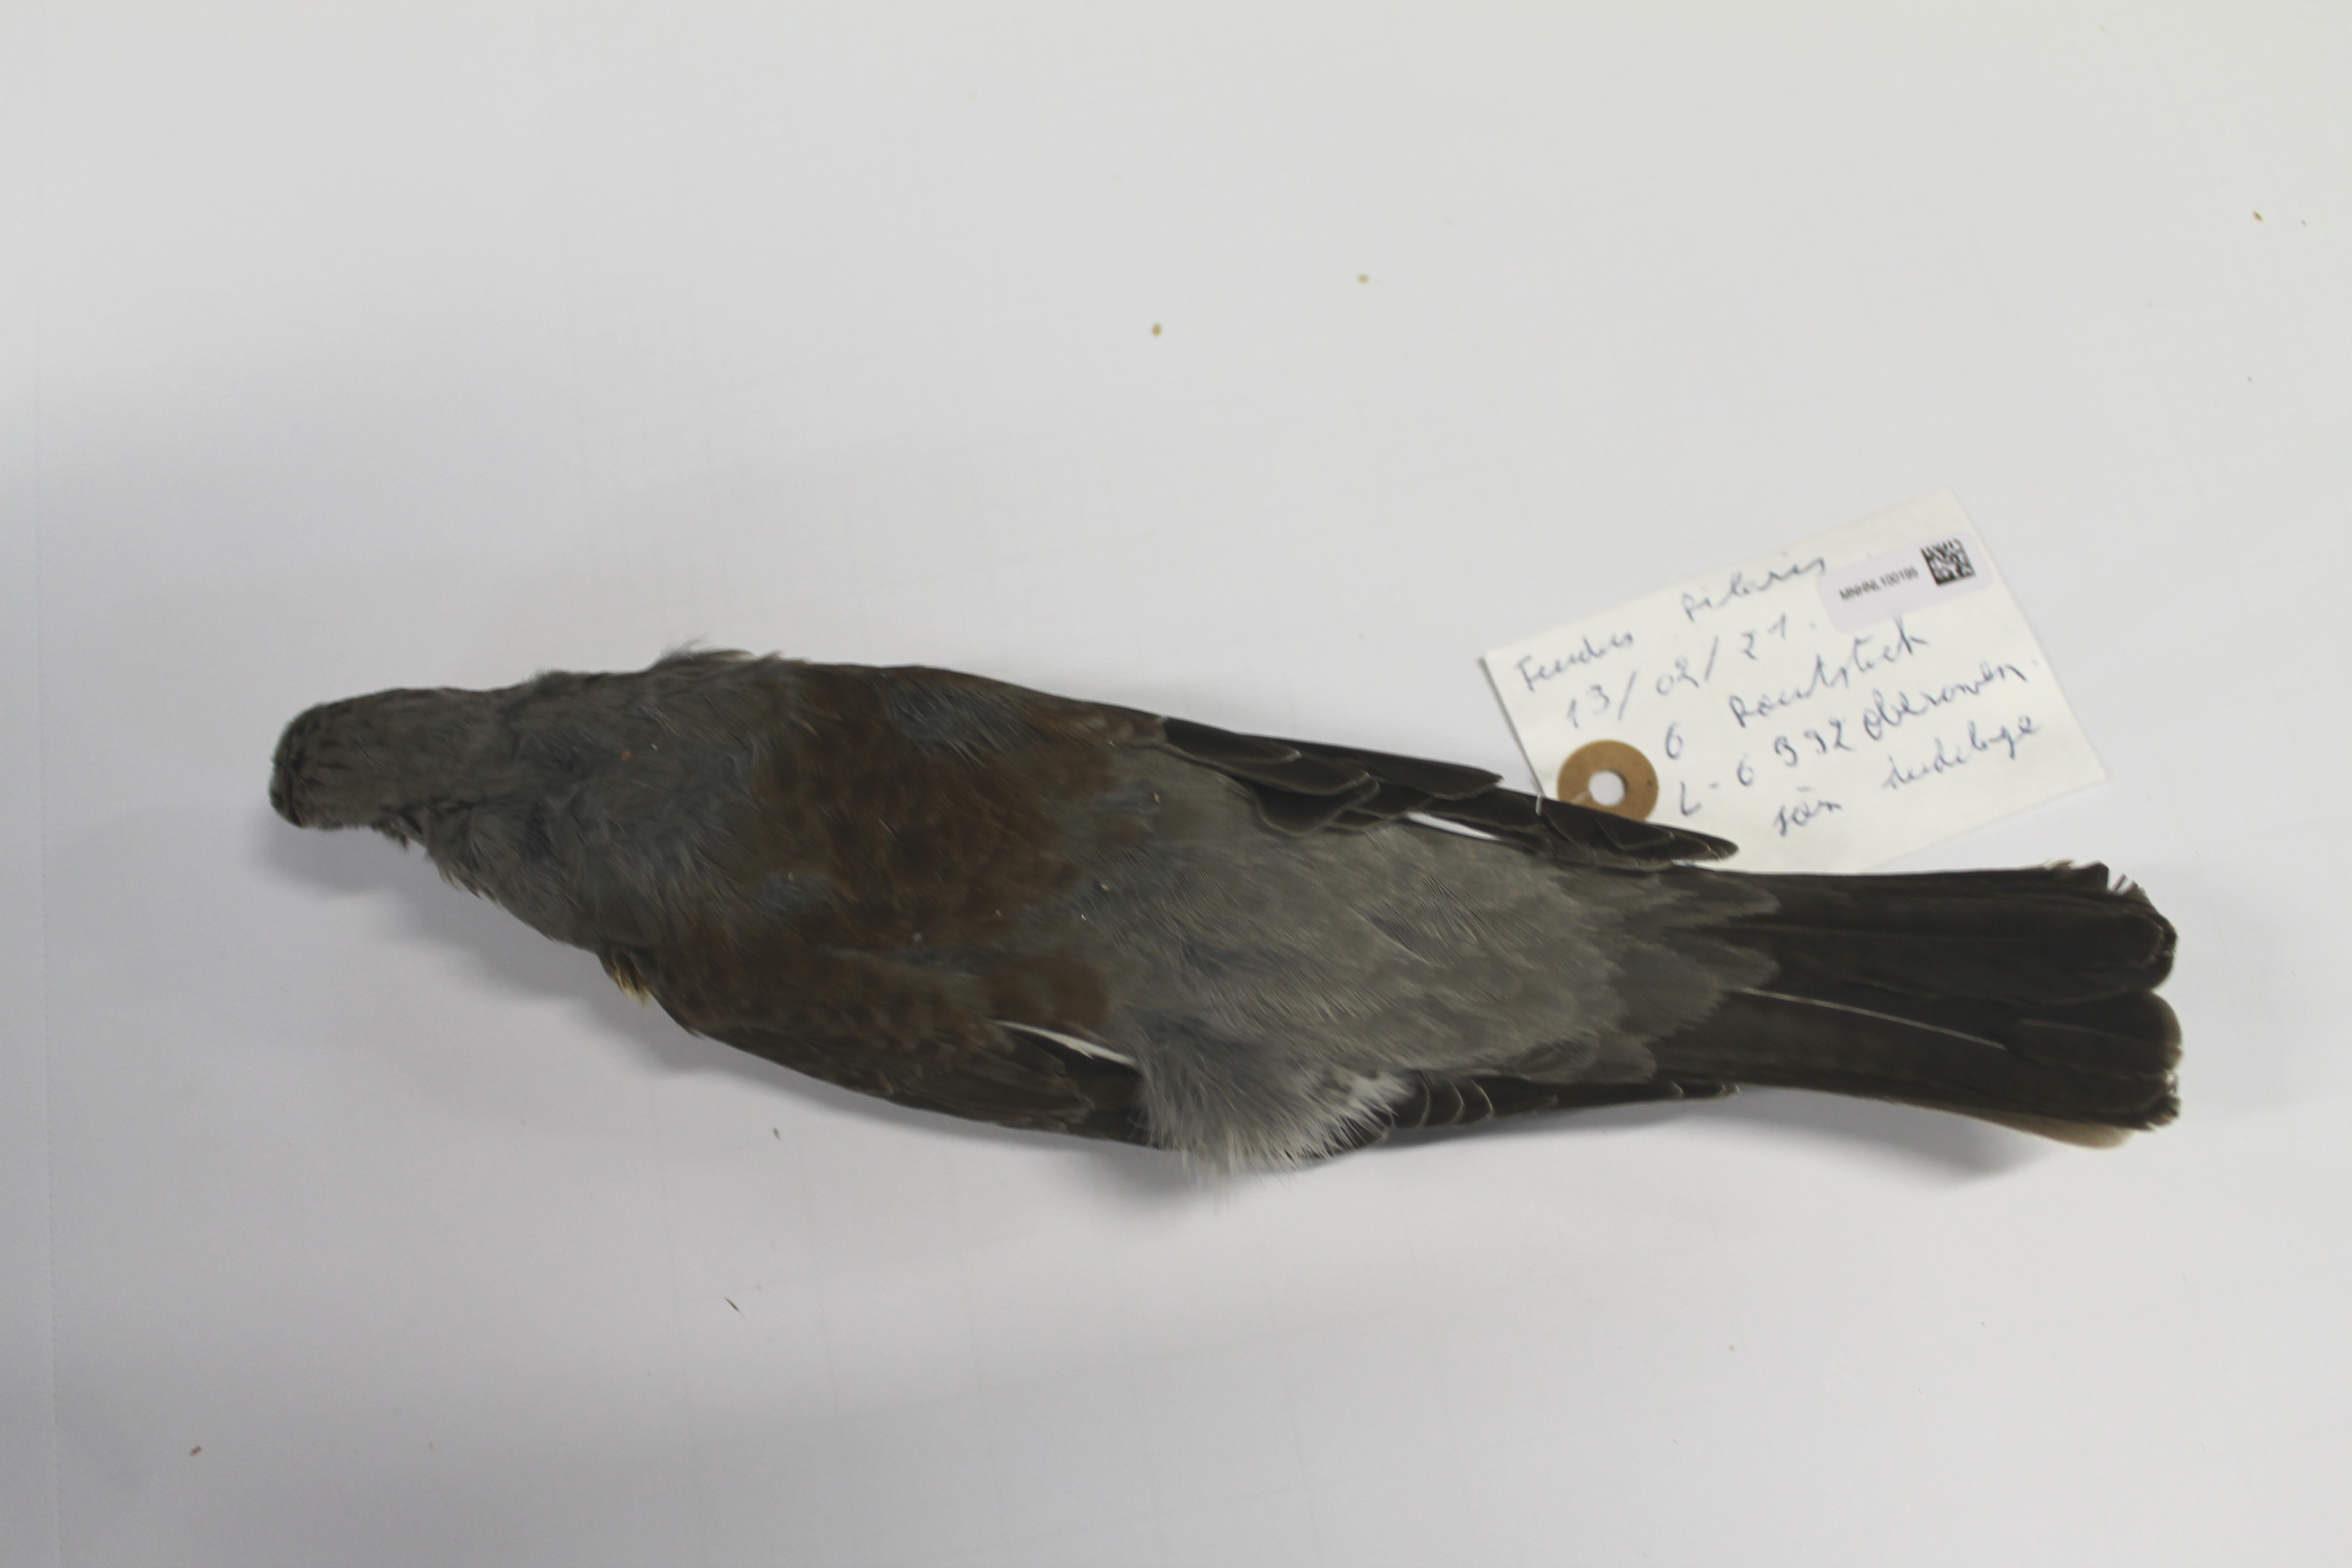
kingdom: Animalia
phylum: Chordata
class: Aves
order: Passeriformes
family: Turdidae
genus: Turdus
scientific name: Turdus pilaris
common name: Fieldfare
